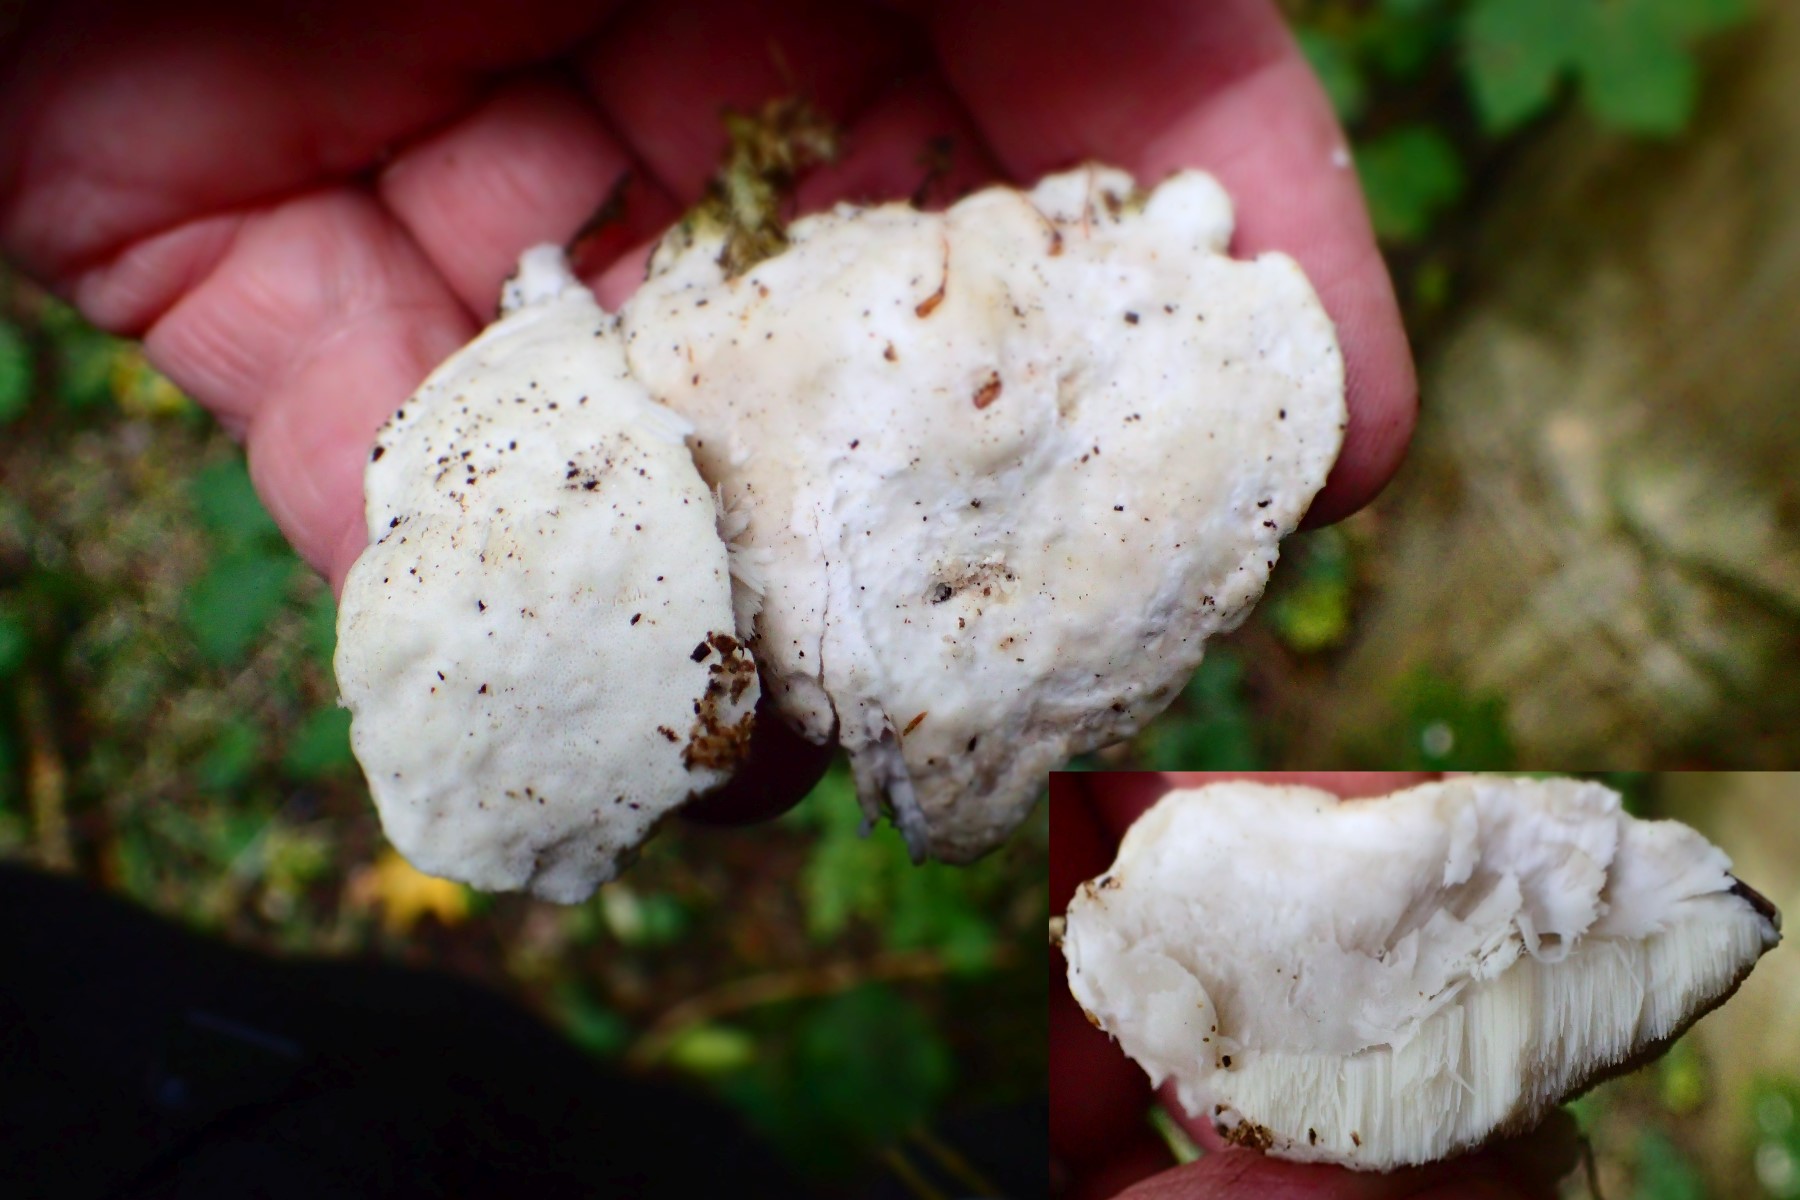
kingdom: Fungi
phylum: Basidiomycota
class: Agaricomycetes
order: Polyporales
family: Incrustoporiaceae
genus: Tyromyces
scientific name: Tyromyces lacteus
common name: mælkehvid kødporesvamp
